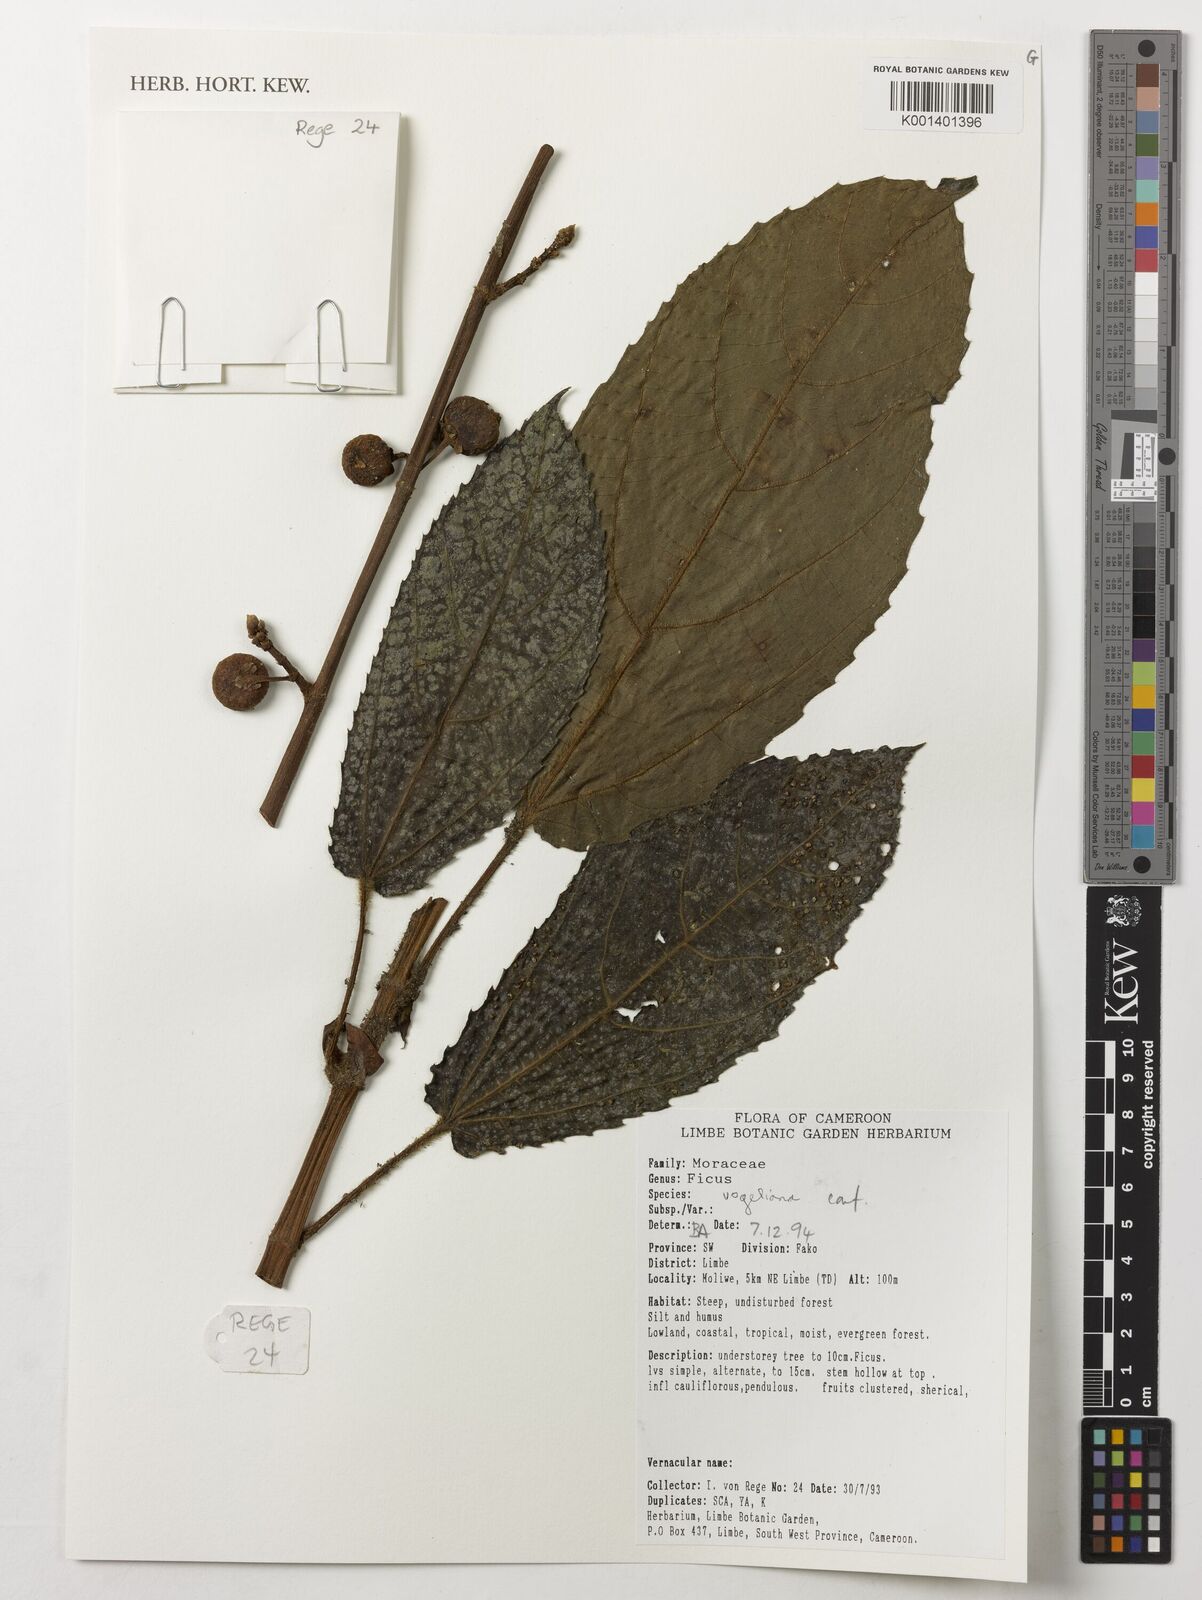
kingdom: Plantae
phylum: Tracheophyta
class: Magnoliopsida
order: Rosales
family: Moraceae
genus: Ficus
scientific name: Ficus vogeliana
